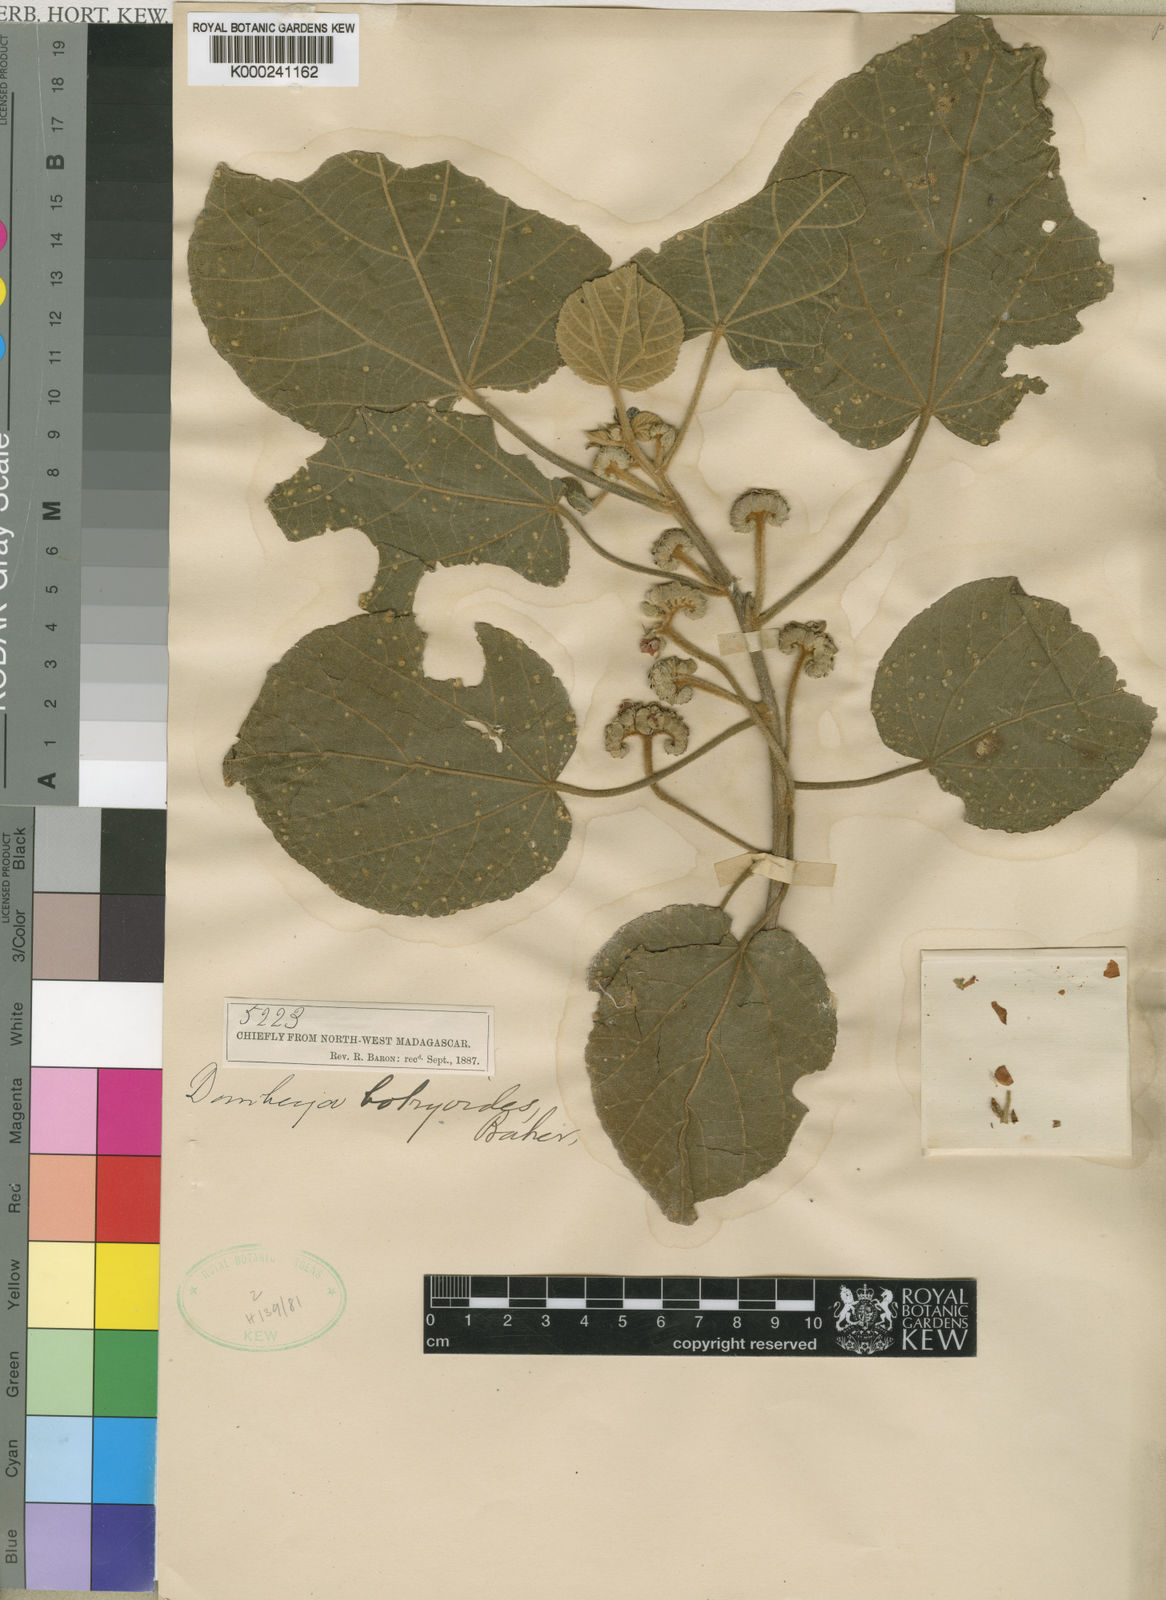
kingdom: Plantae
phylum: Tracheophyta
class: Magnoliopsida
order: Malvales
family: Malvaceae
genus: Dombeya
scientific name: Dombeya greveana
